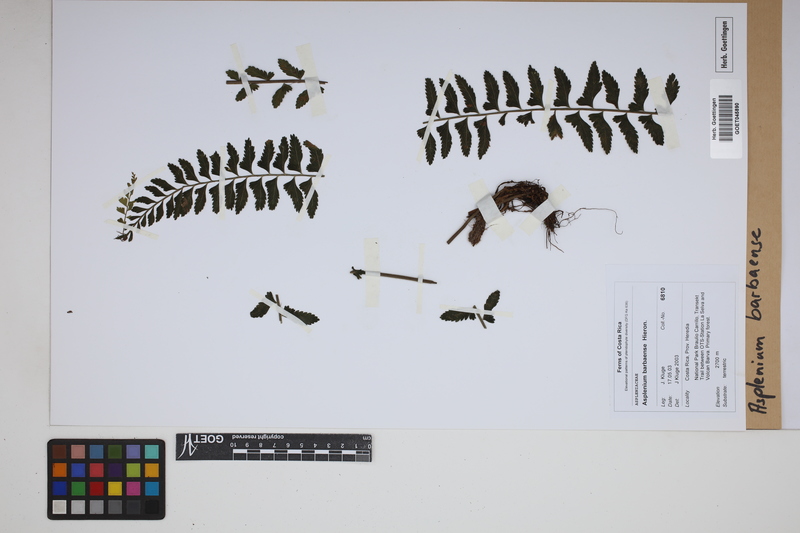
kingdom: Plantae
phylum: Tracheophyta
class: Polypodiopsida
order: Polypodiales
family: Aspleniaceae
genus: Asplenium
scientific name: Asplenium barbaense
